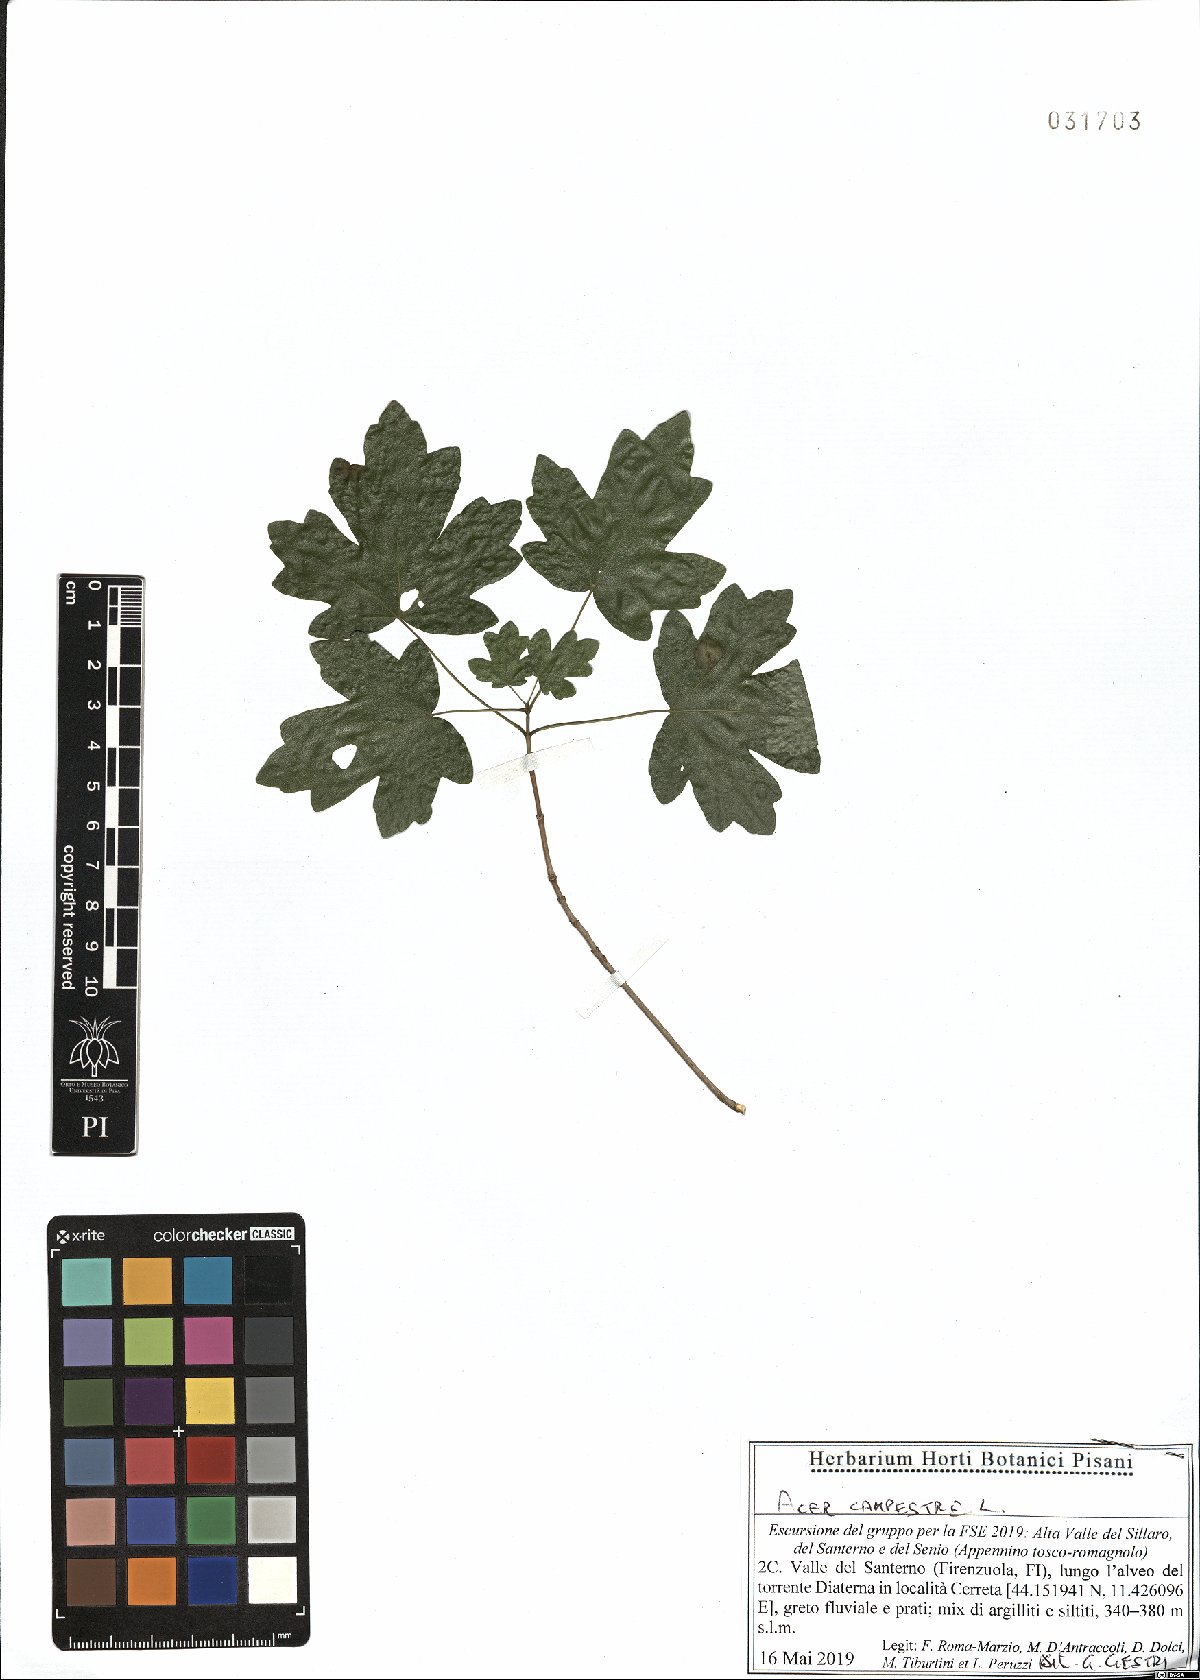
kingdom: Plantae
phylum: Tracheophyta
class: Magnoliopsida
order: Sapindales
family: Sapindaceae
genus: Acer
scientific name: Acer campestre
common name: Field maple
